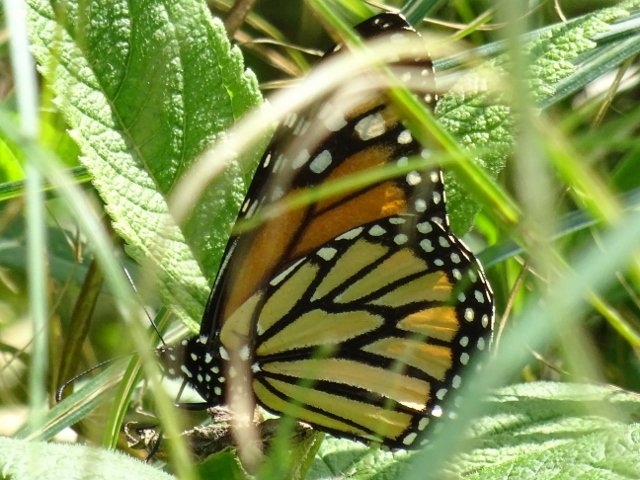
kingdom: Animalia
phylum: Arthropoda
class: Insecta
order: Lepidoptera
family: Nymphalidae
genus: Danaus
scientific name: Danaus plexippus
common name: Monarch
